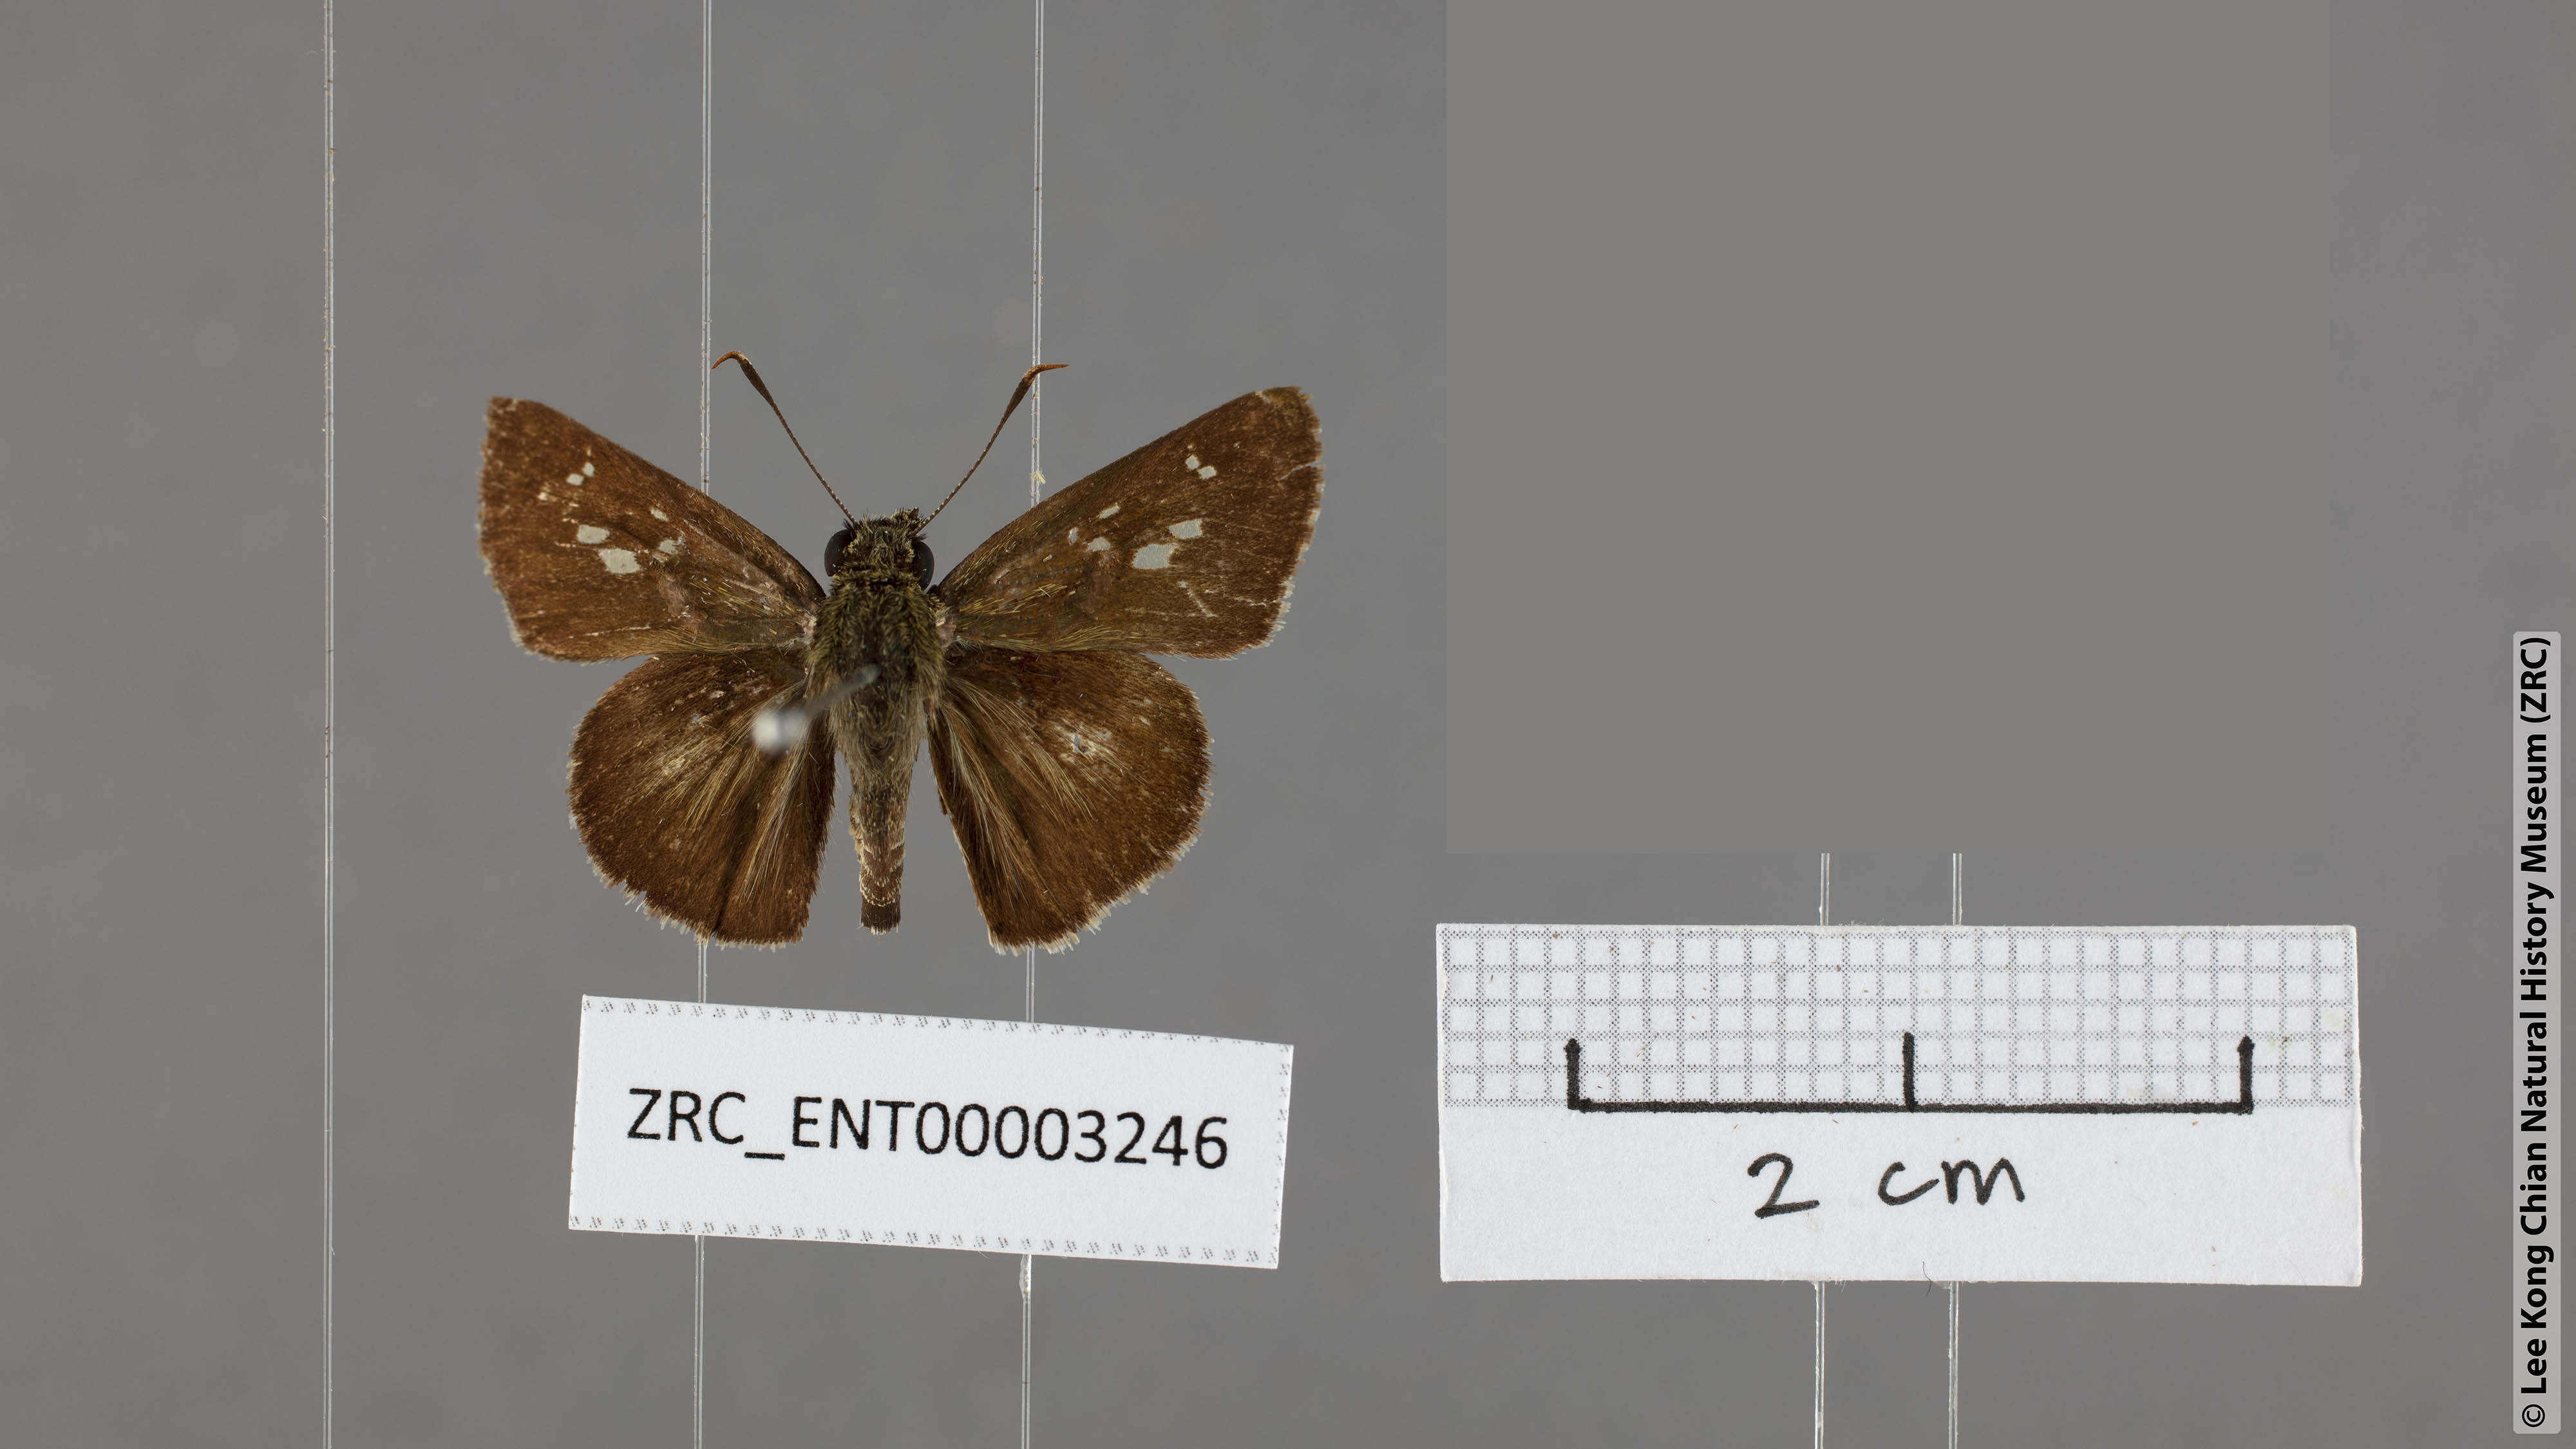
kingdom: Animalia
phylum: Arthropoda
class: Insecta
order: Lepidoptera
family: Hesperiidae
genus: Halpe
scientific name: Halpe porus
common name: Moore's ace
